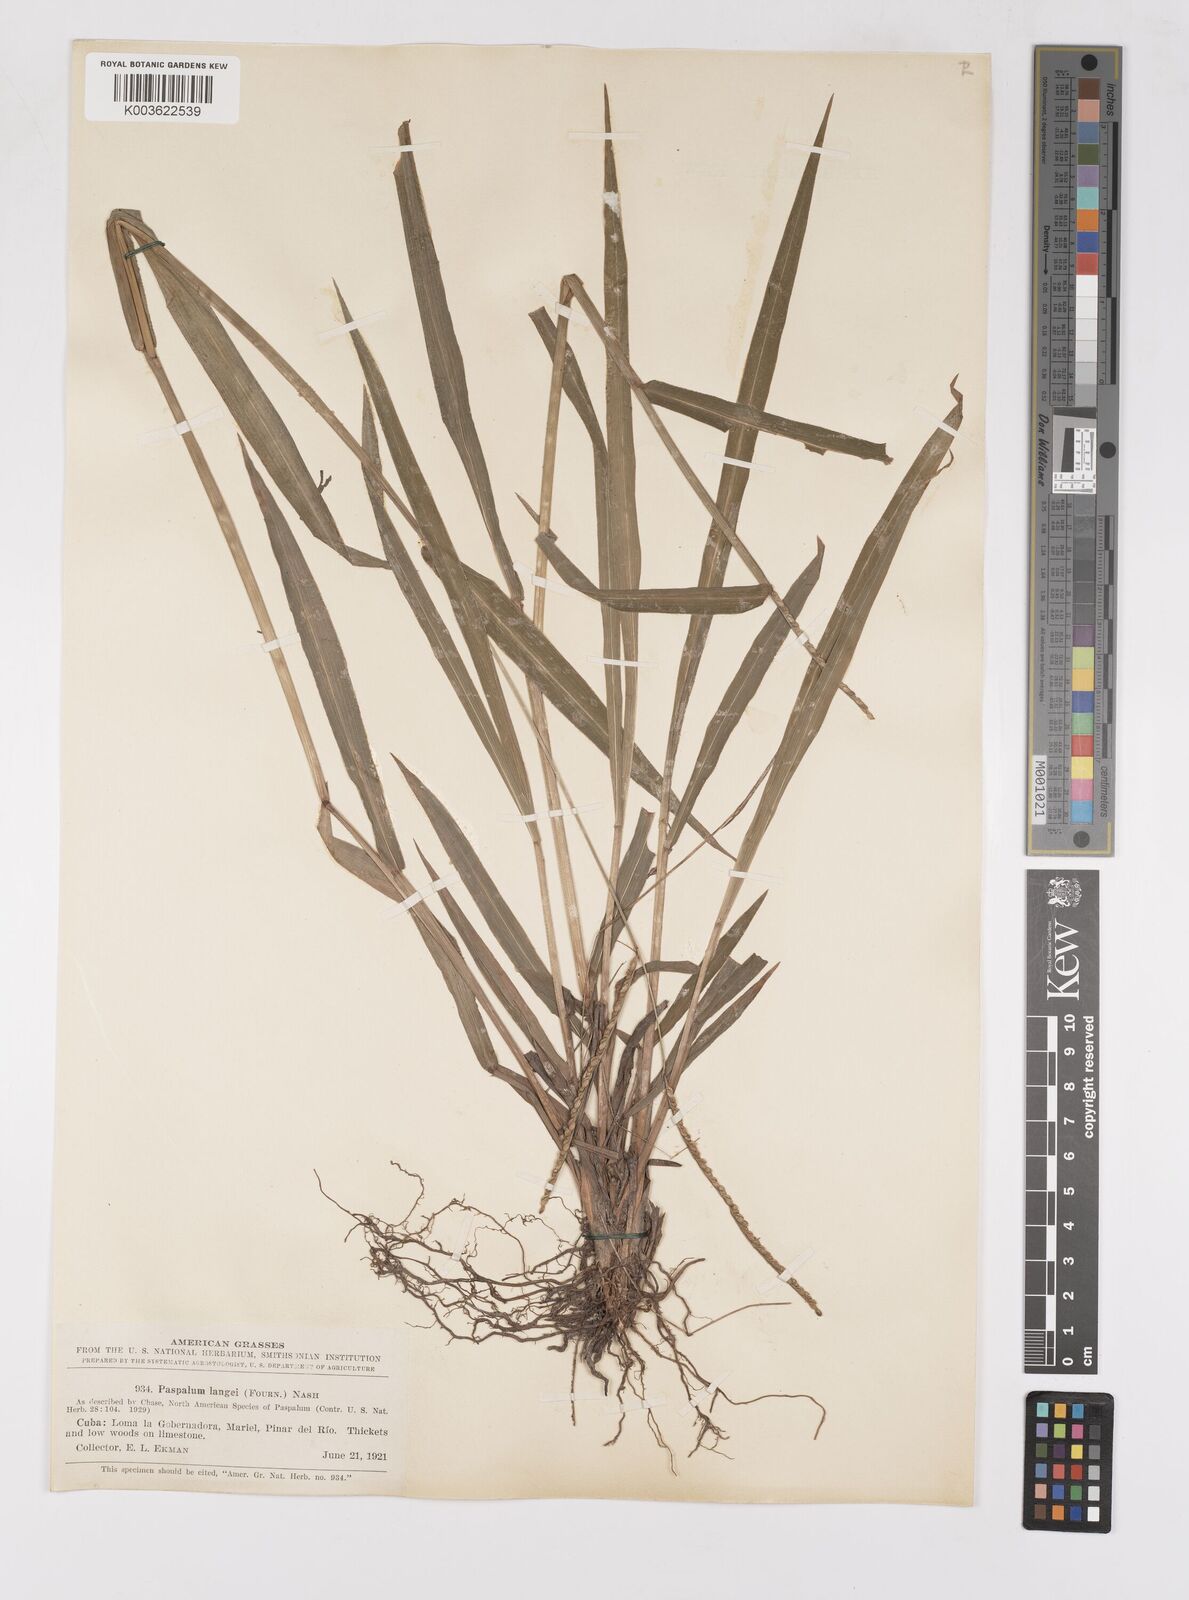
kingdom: Plantae
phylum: Tracheophyta
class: Liliopsida
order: Poales
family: Poaceae
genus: Paspalum
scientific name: Paspalum langei
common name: Rusty-seed paspalum
